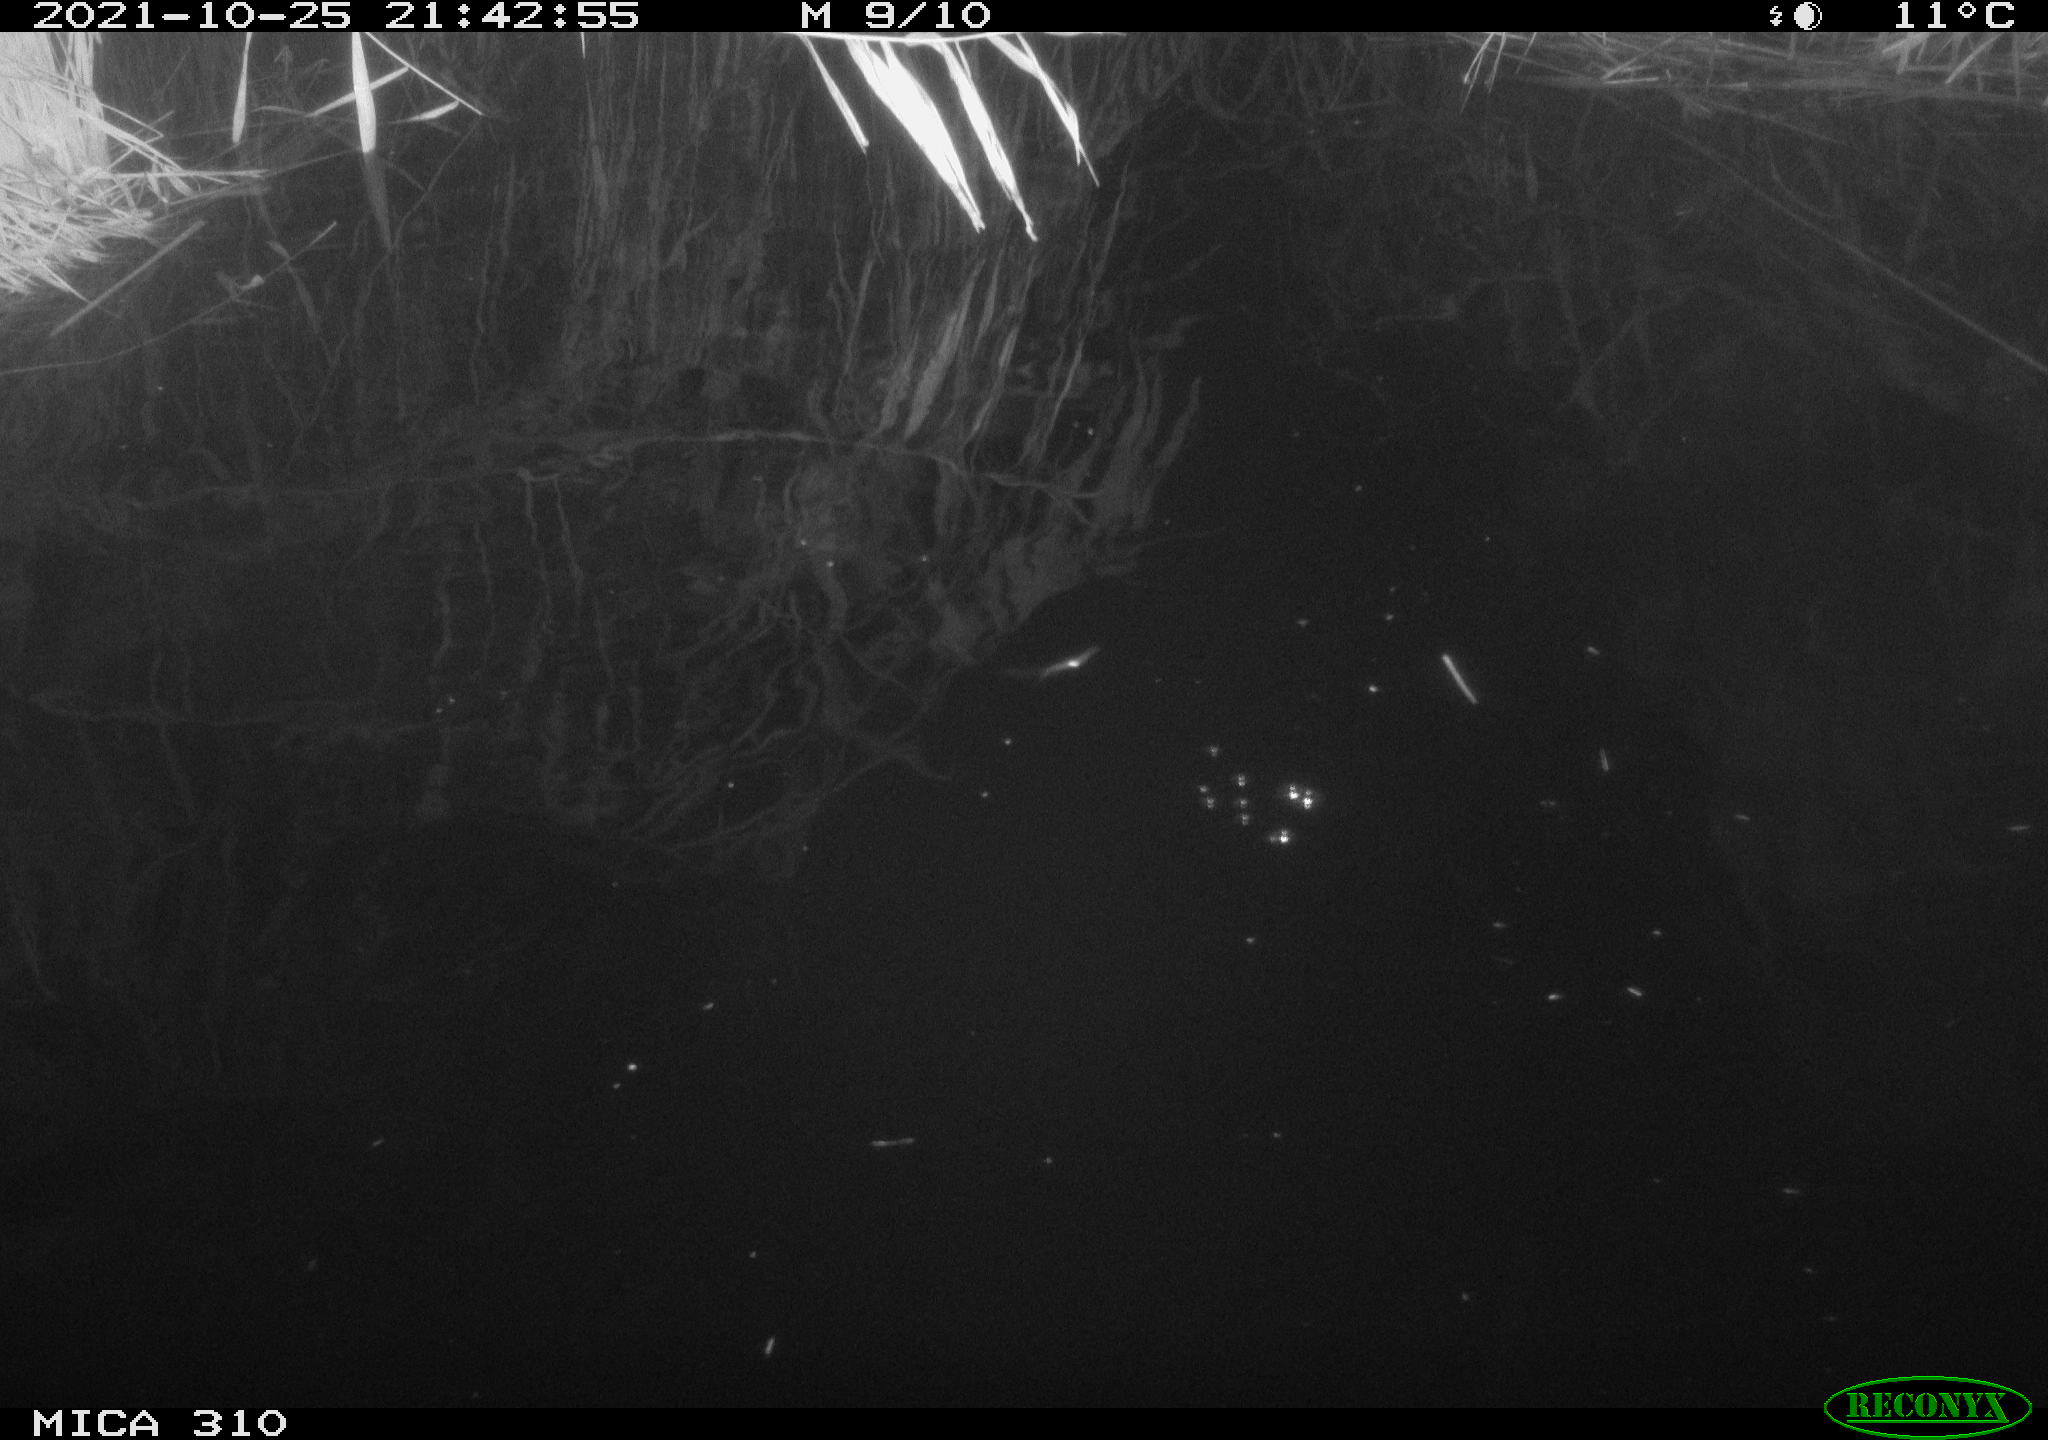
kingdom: Animalia
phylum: Chordata
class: Mammalia
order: Rodentia
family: Cricetidae
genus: Ondatra
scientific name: Ondatra zibethicus
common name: Muskrat
